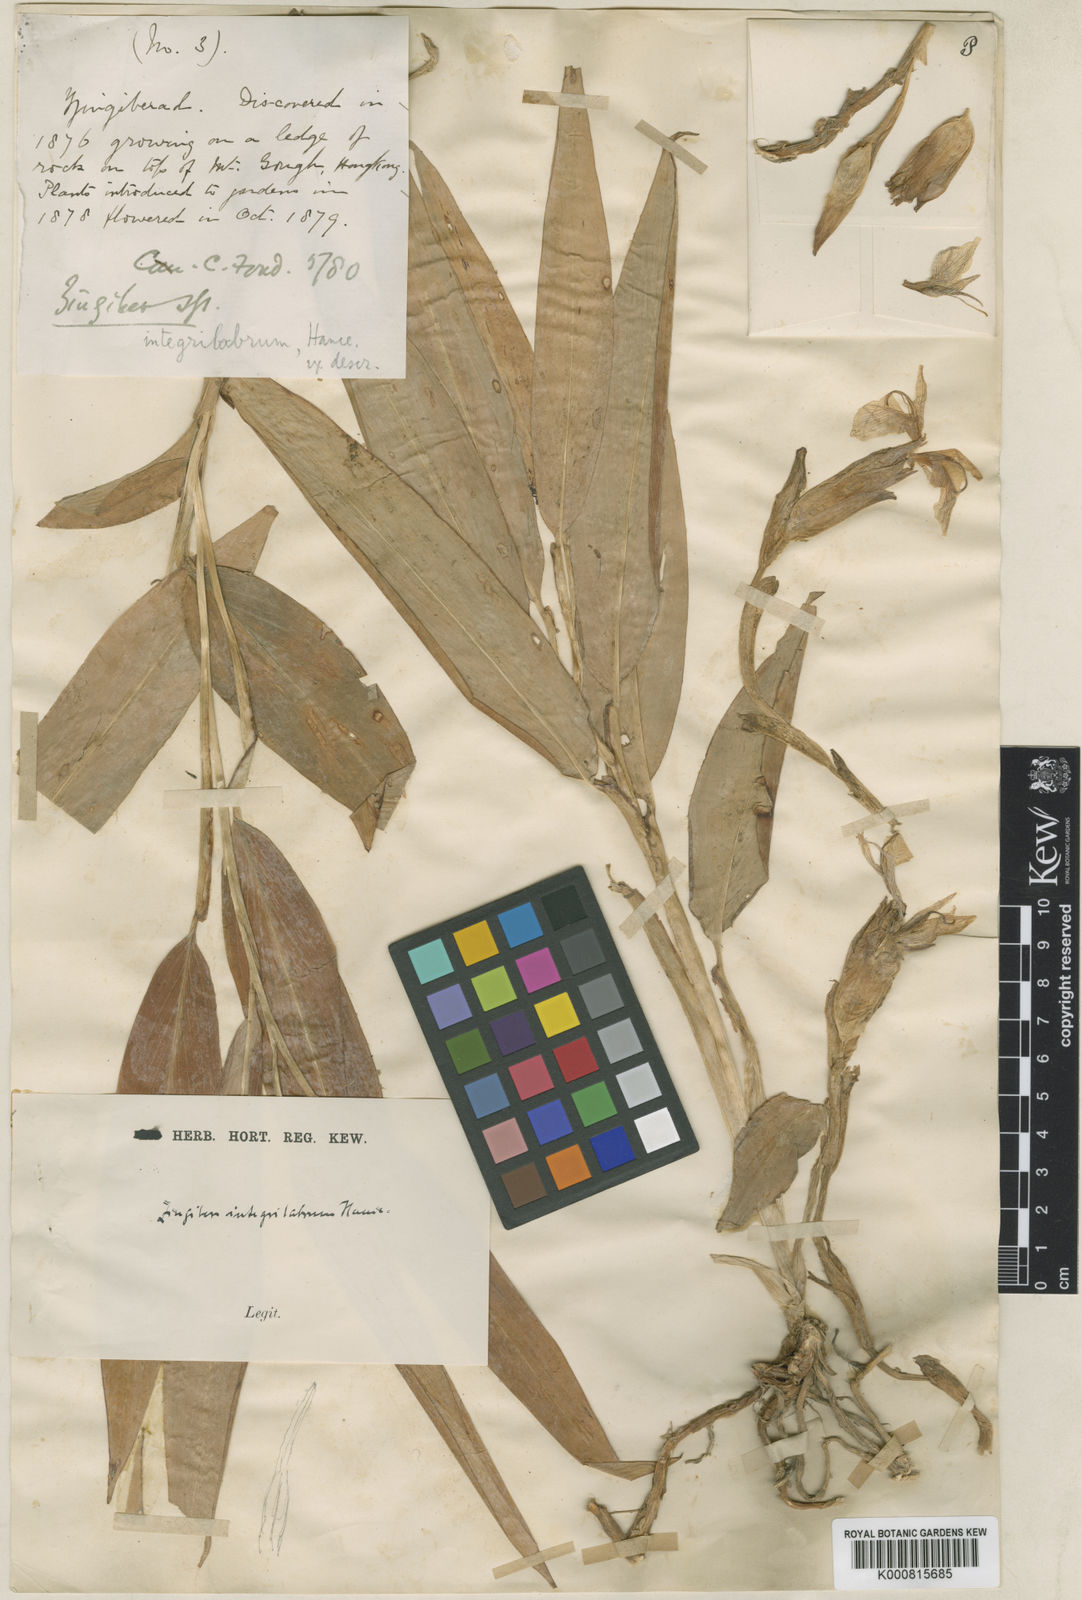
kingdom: Plantae
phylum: Tracheophyta
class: Liliopsida
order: Zingiberales
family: Zingiberaceae
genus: Zingiber
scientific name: Zingiber integrilabrum
